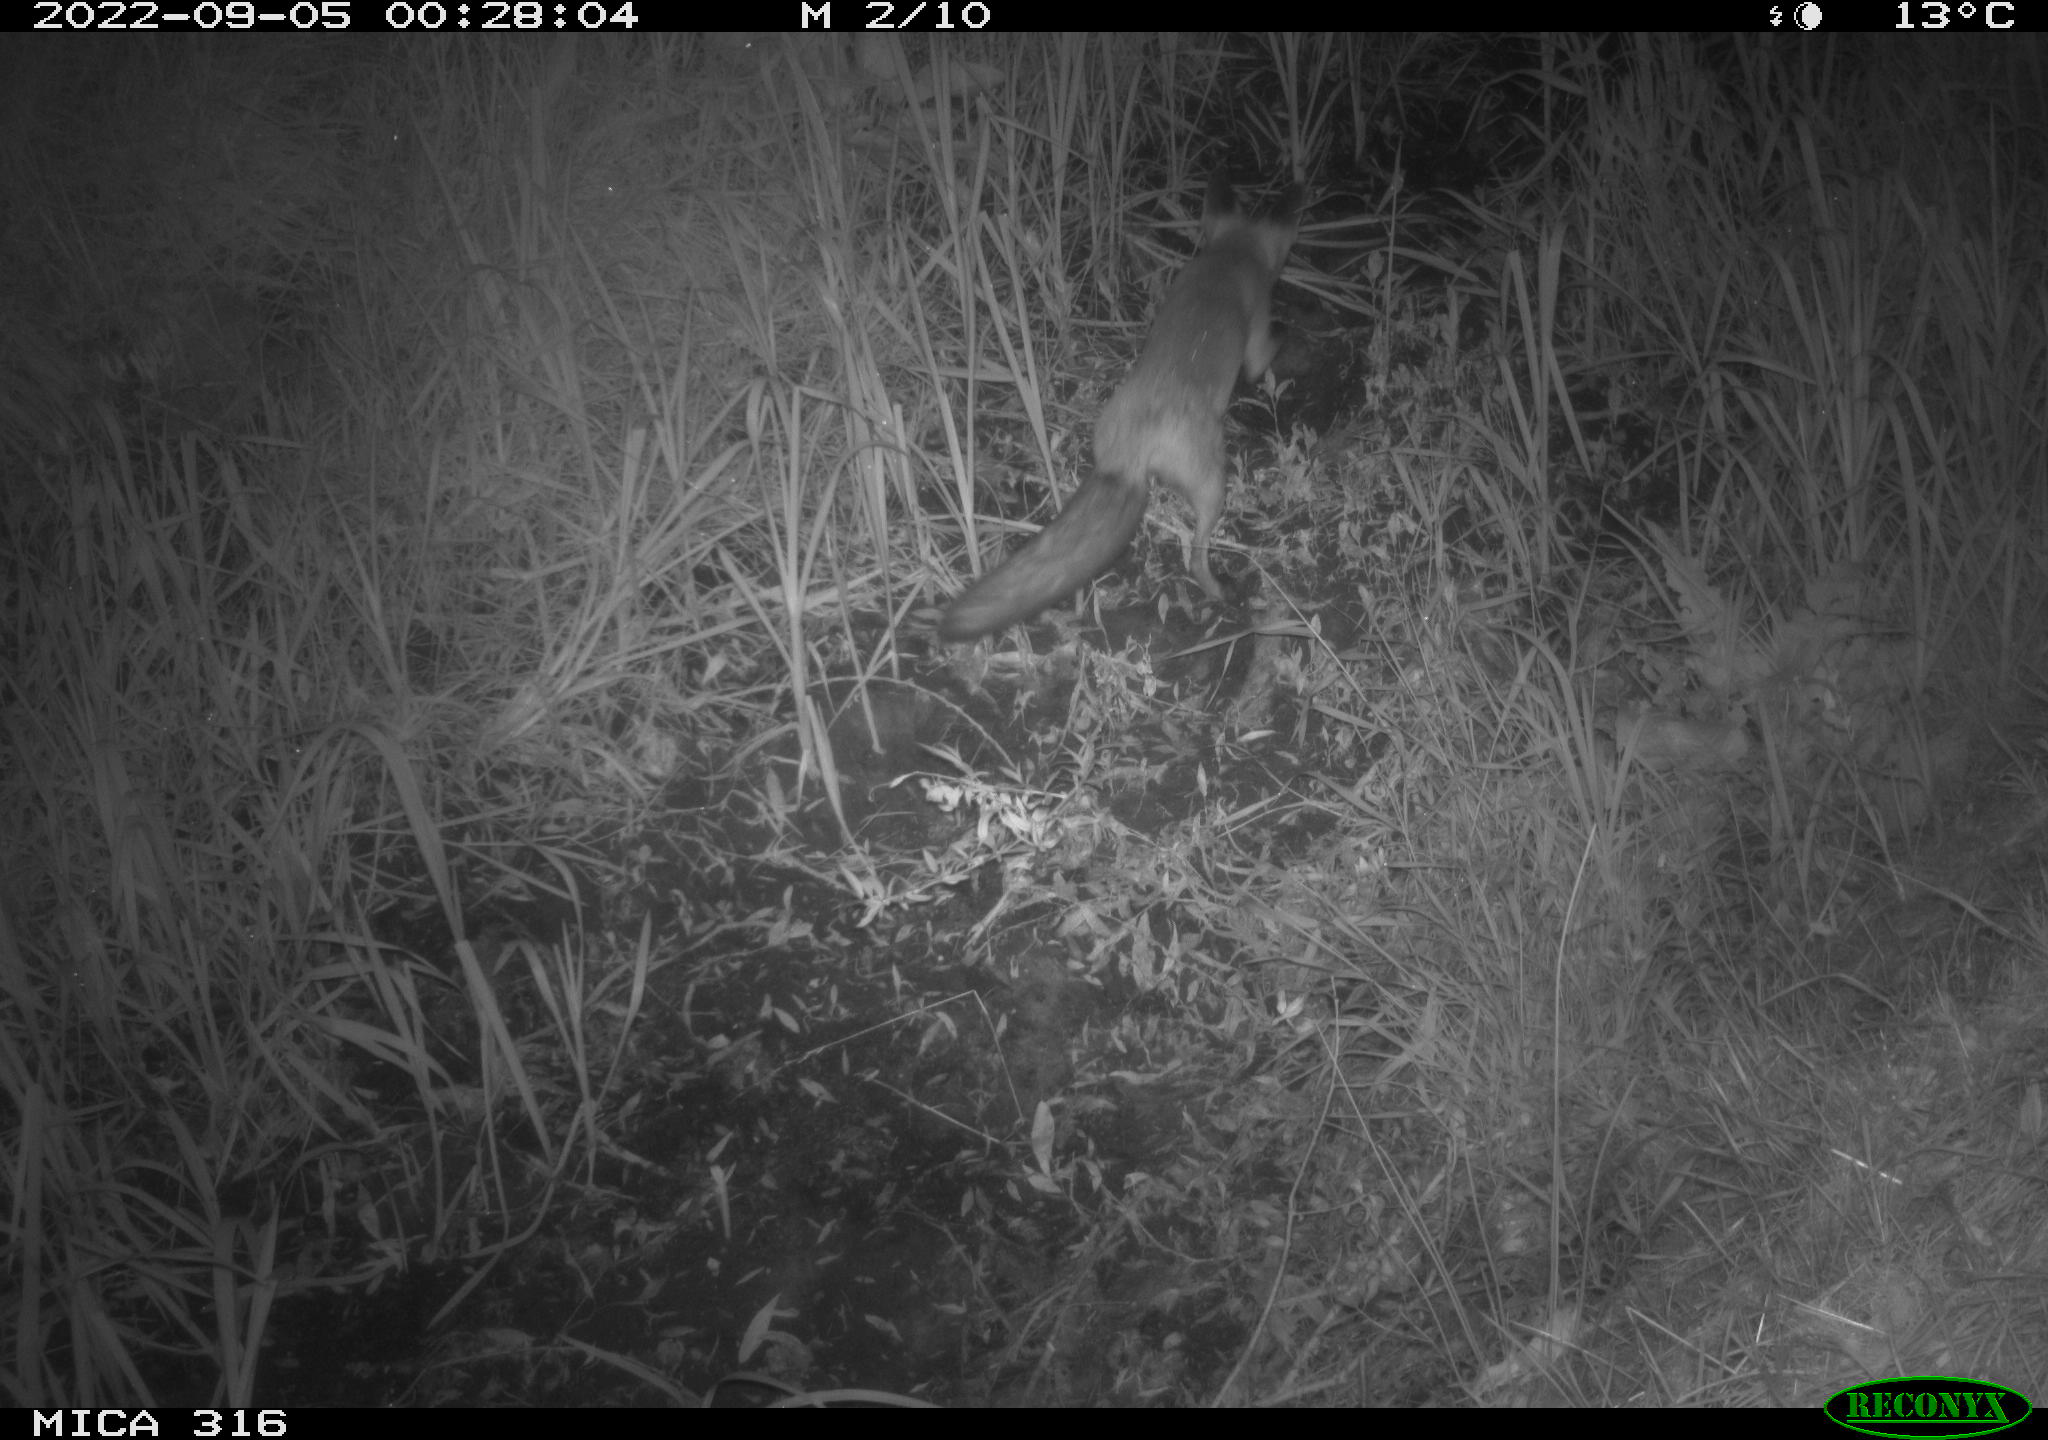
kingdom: Animalia
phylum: Chordata
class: Mammalia
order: Carnivora
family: Canidae
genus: Vulpes
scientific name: Vulpes vulpes
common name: Red fox
